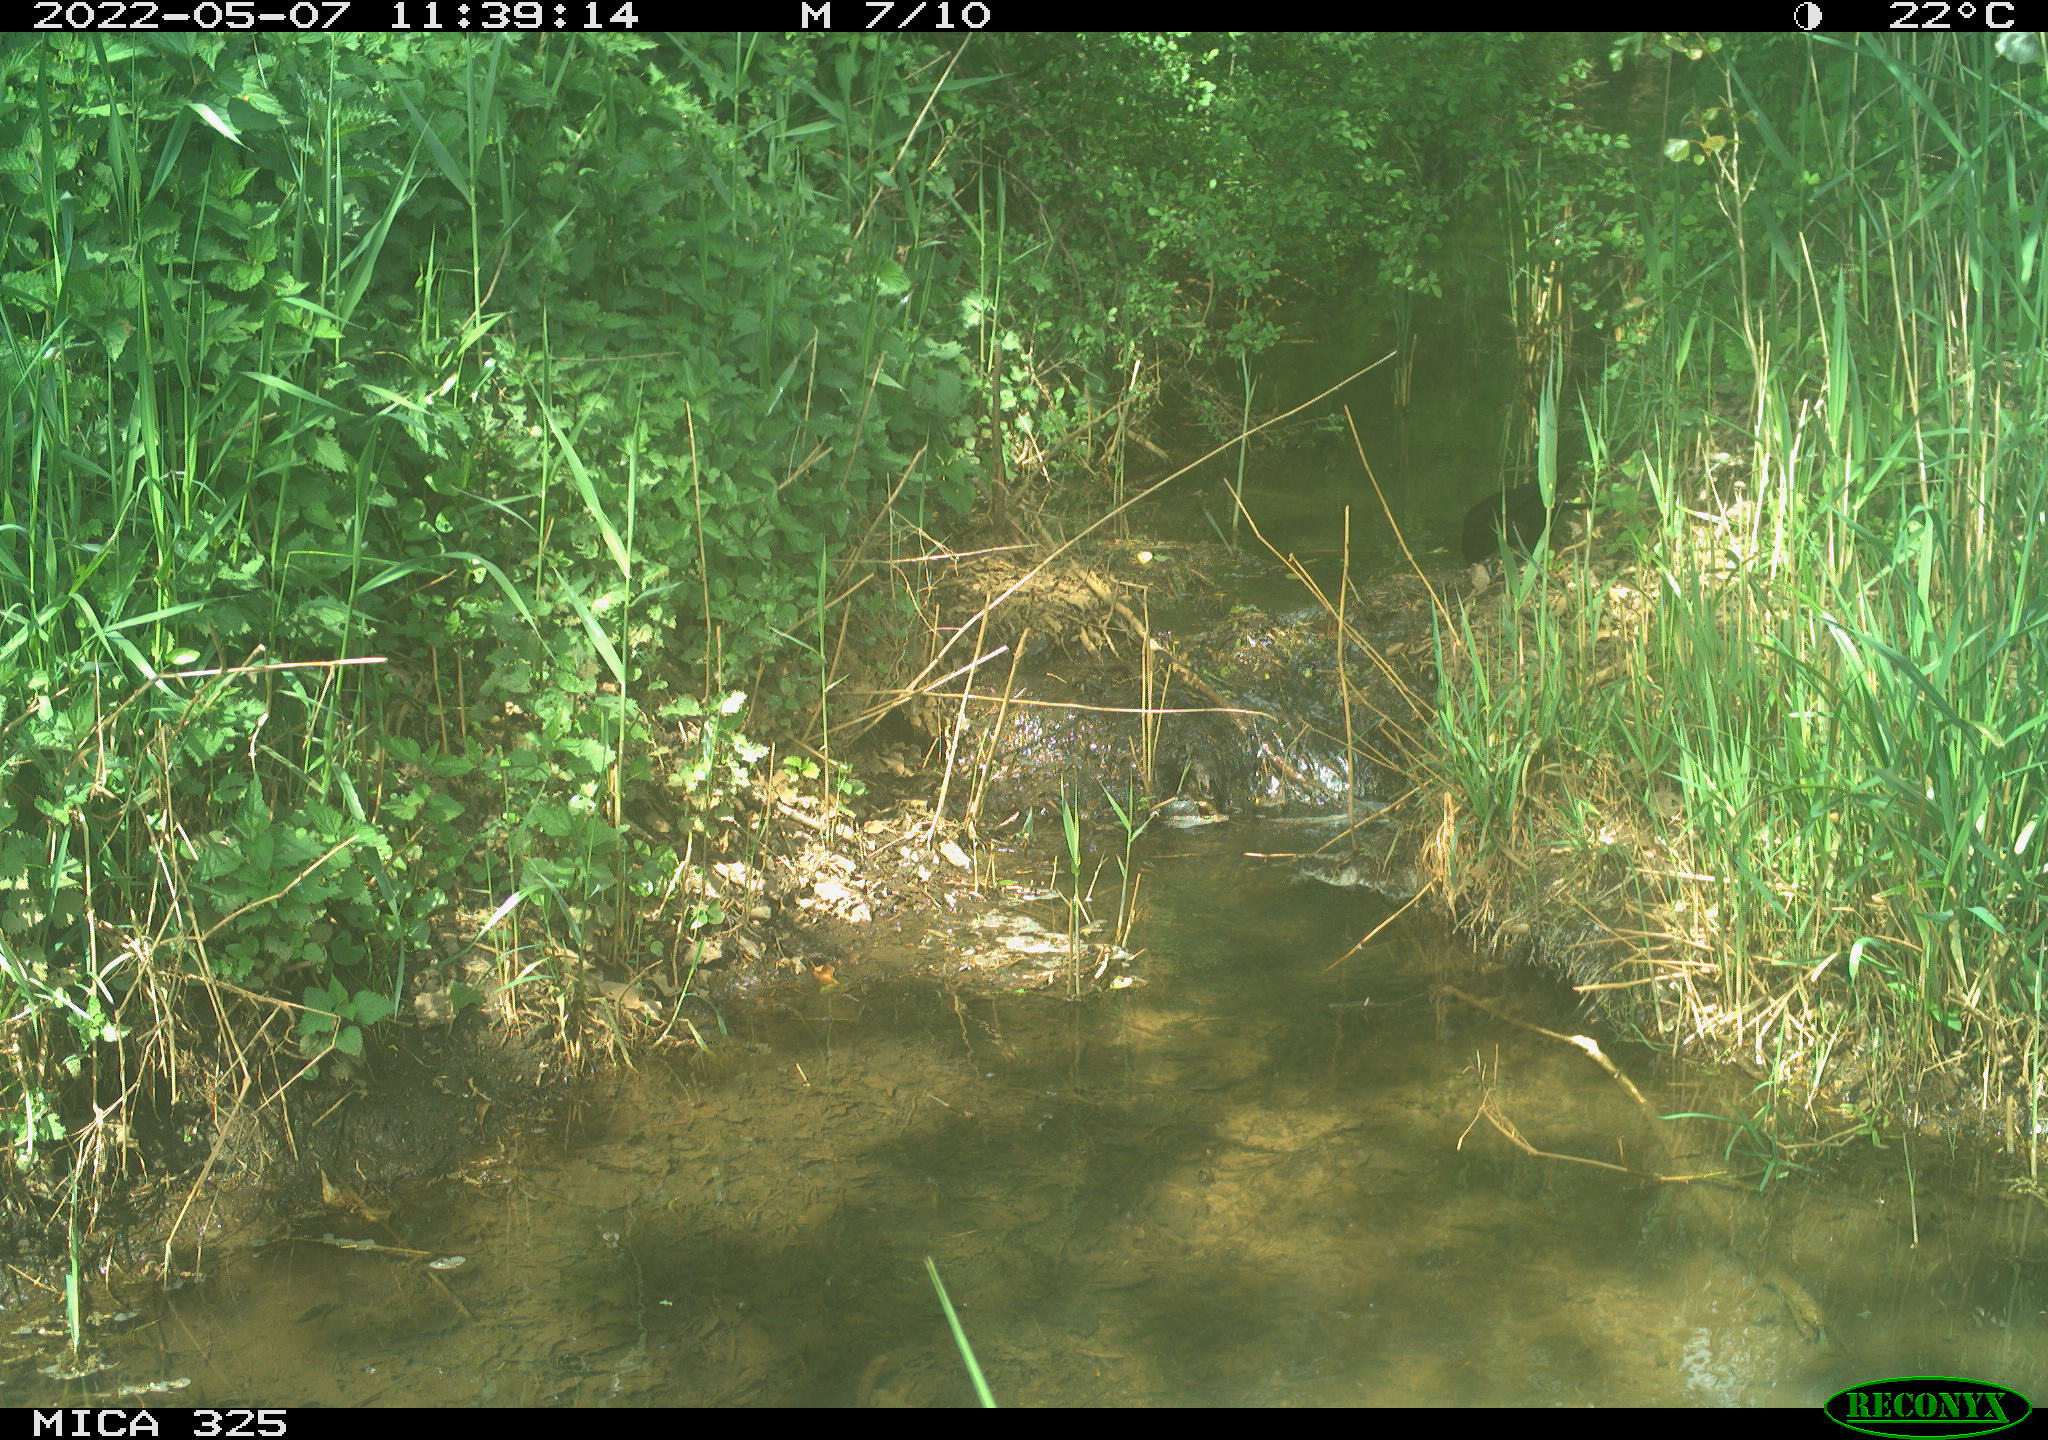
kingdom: Animalia
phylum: Chordata
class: Aves
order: Passeriformes
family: Corvidae
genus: Corvus
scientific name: Corvus corone
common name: Carrion crow
